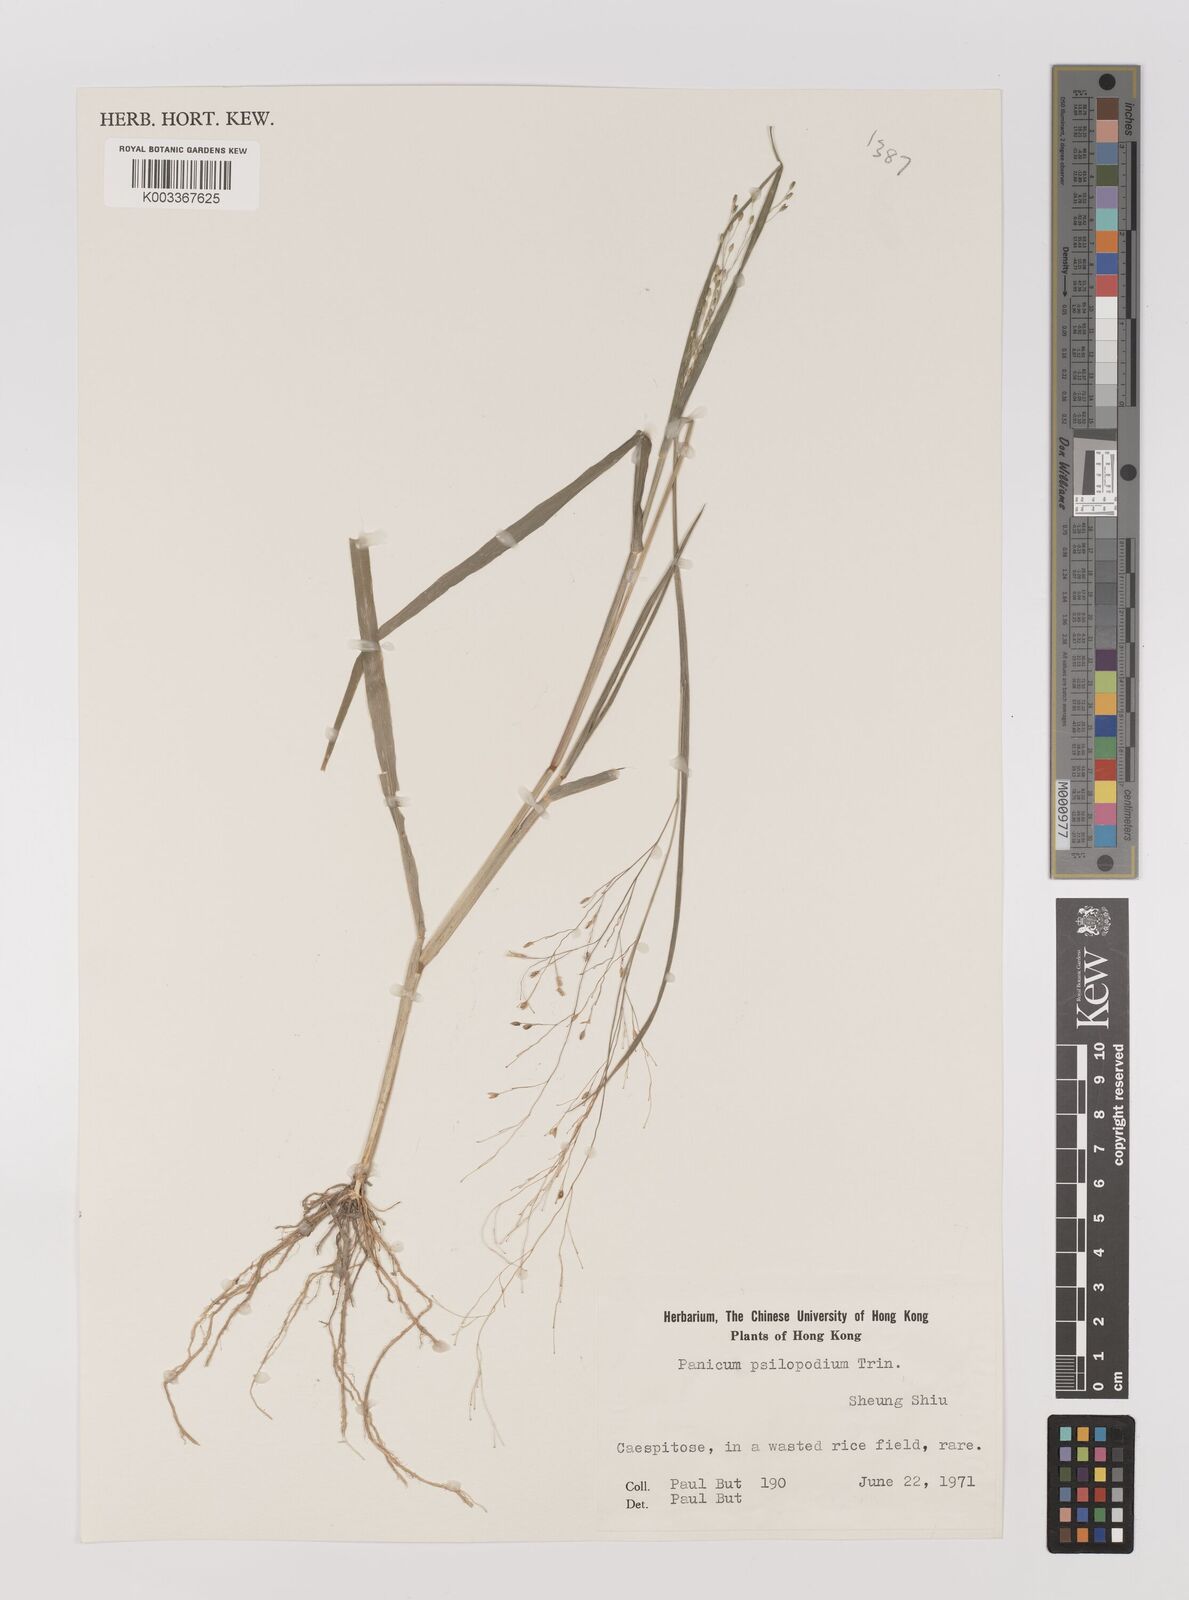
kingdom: Plantae
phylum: Tracheophyta
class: Liliopsida
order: Poales
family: Poaceae
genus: Panicum
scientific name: Panicum sumatrense
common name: Little millet
